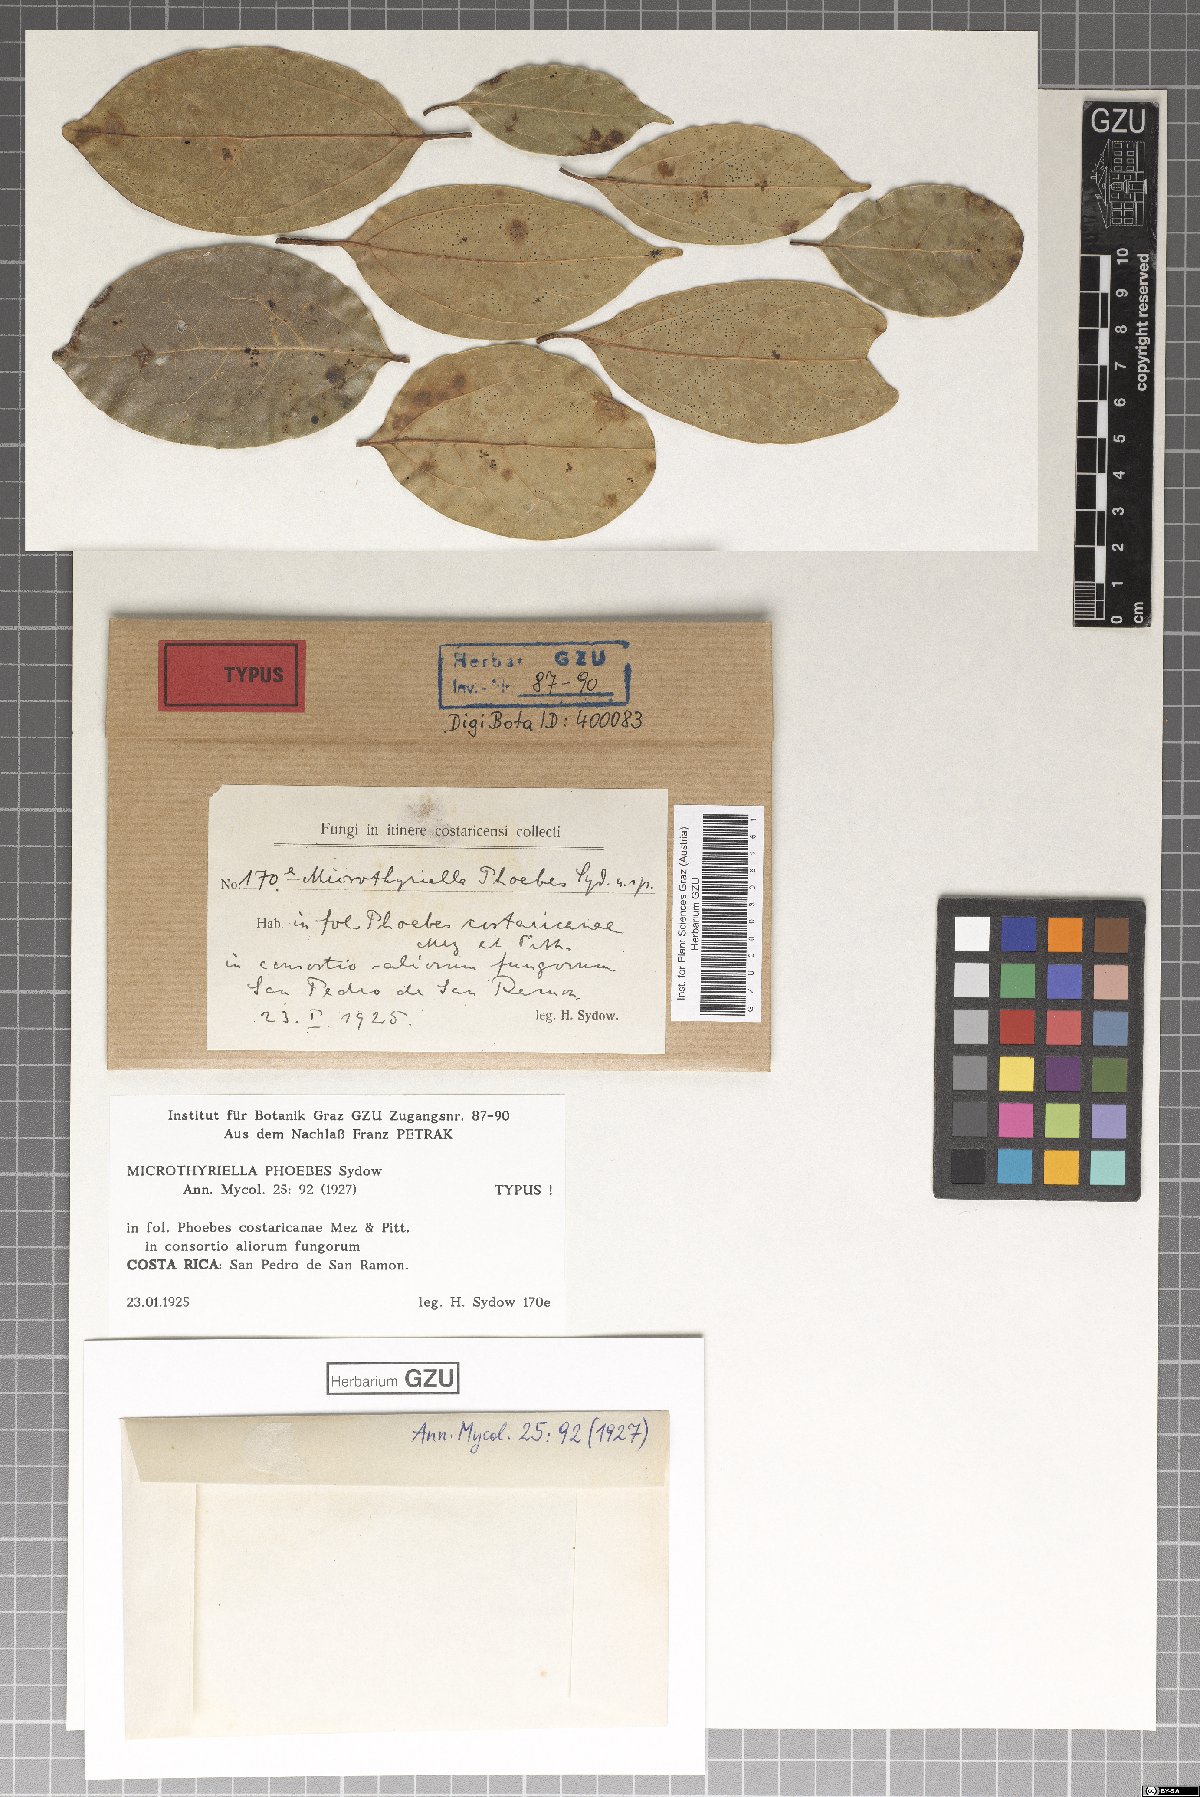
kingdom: Fungi
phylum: Ascomycota
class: Dothideomycetes
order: Mycosphaerellales
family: Schizothyriaceae
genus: Schizothyrium
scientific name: Schizothyrium phoebes
